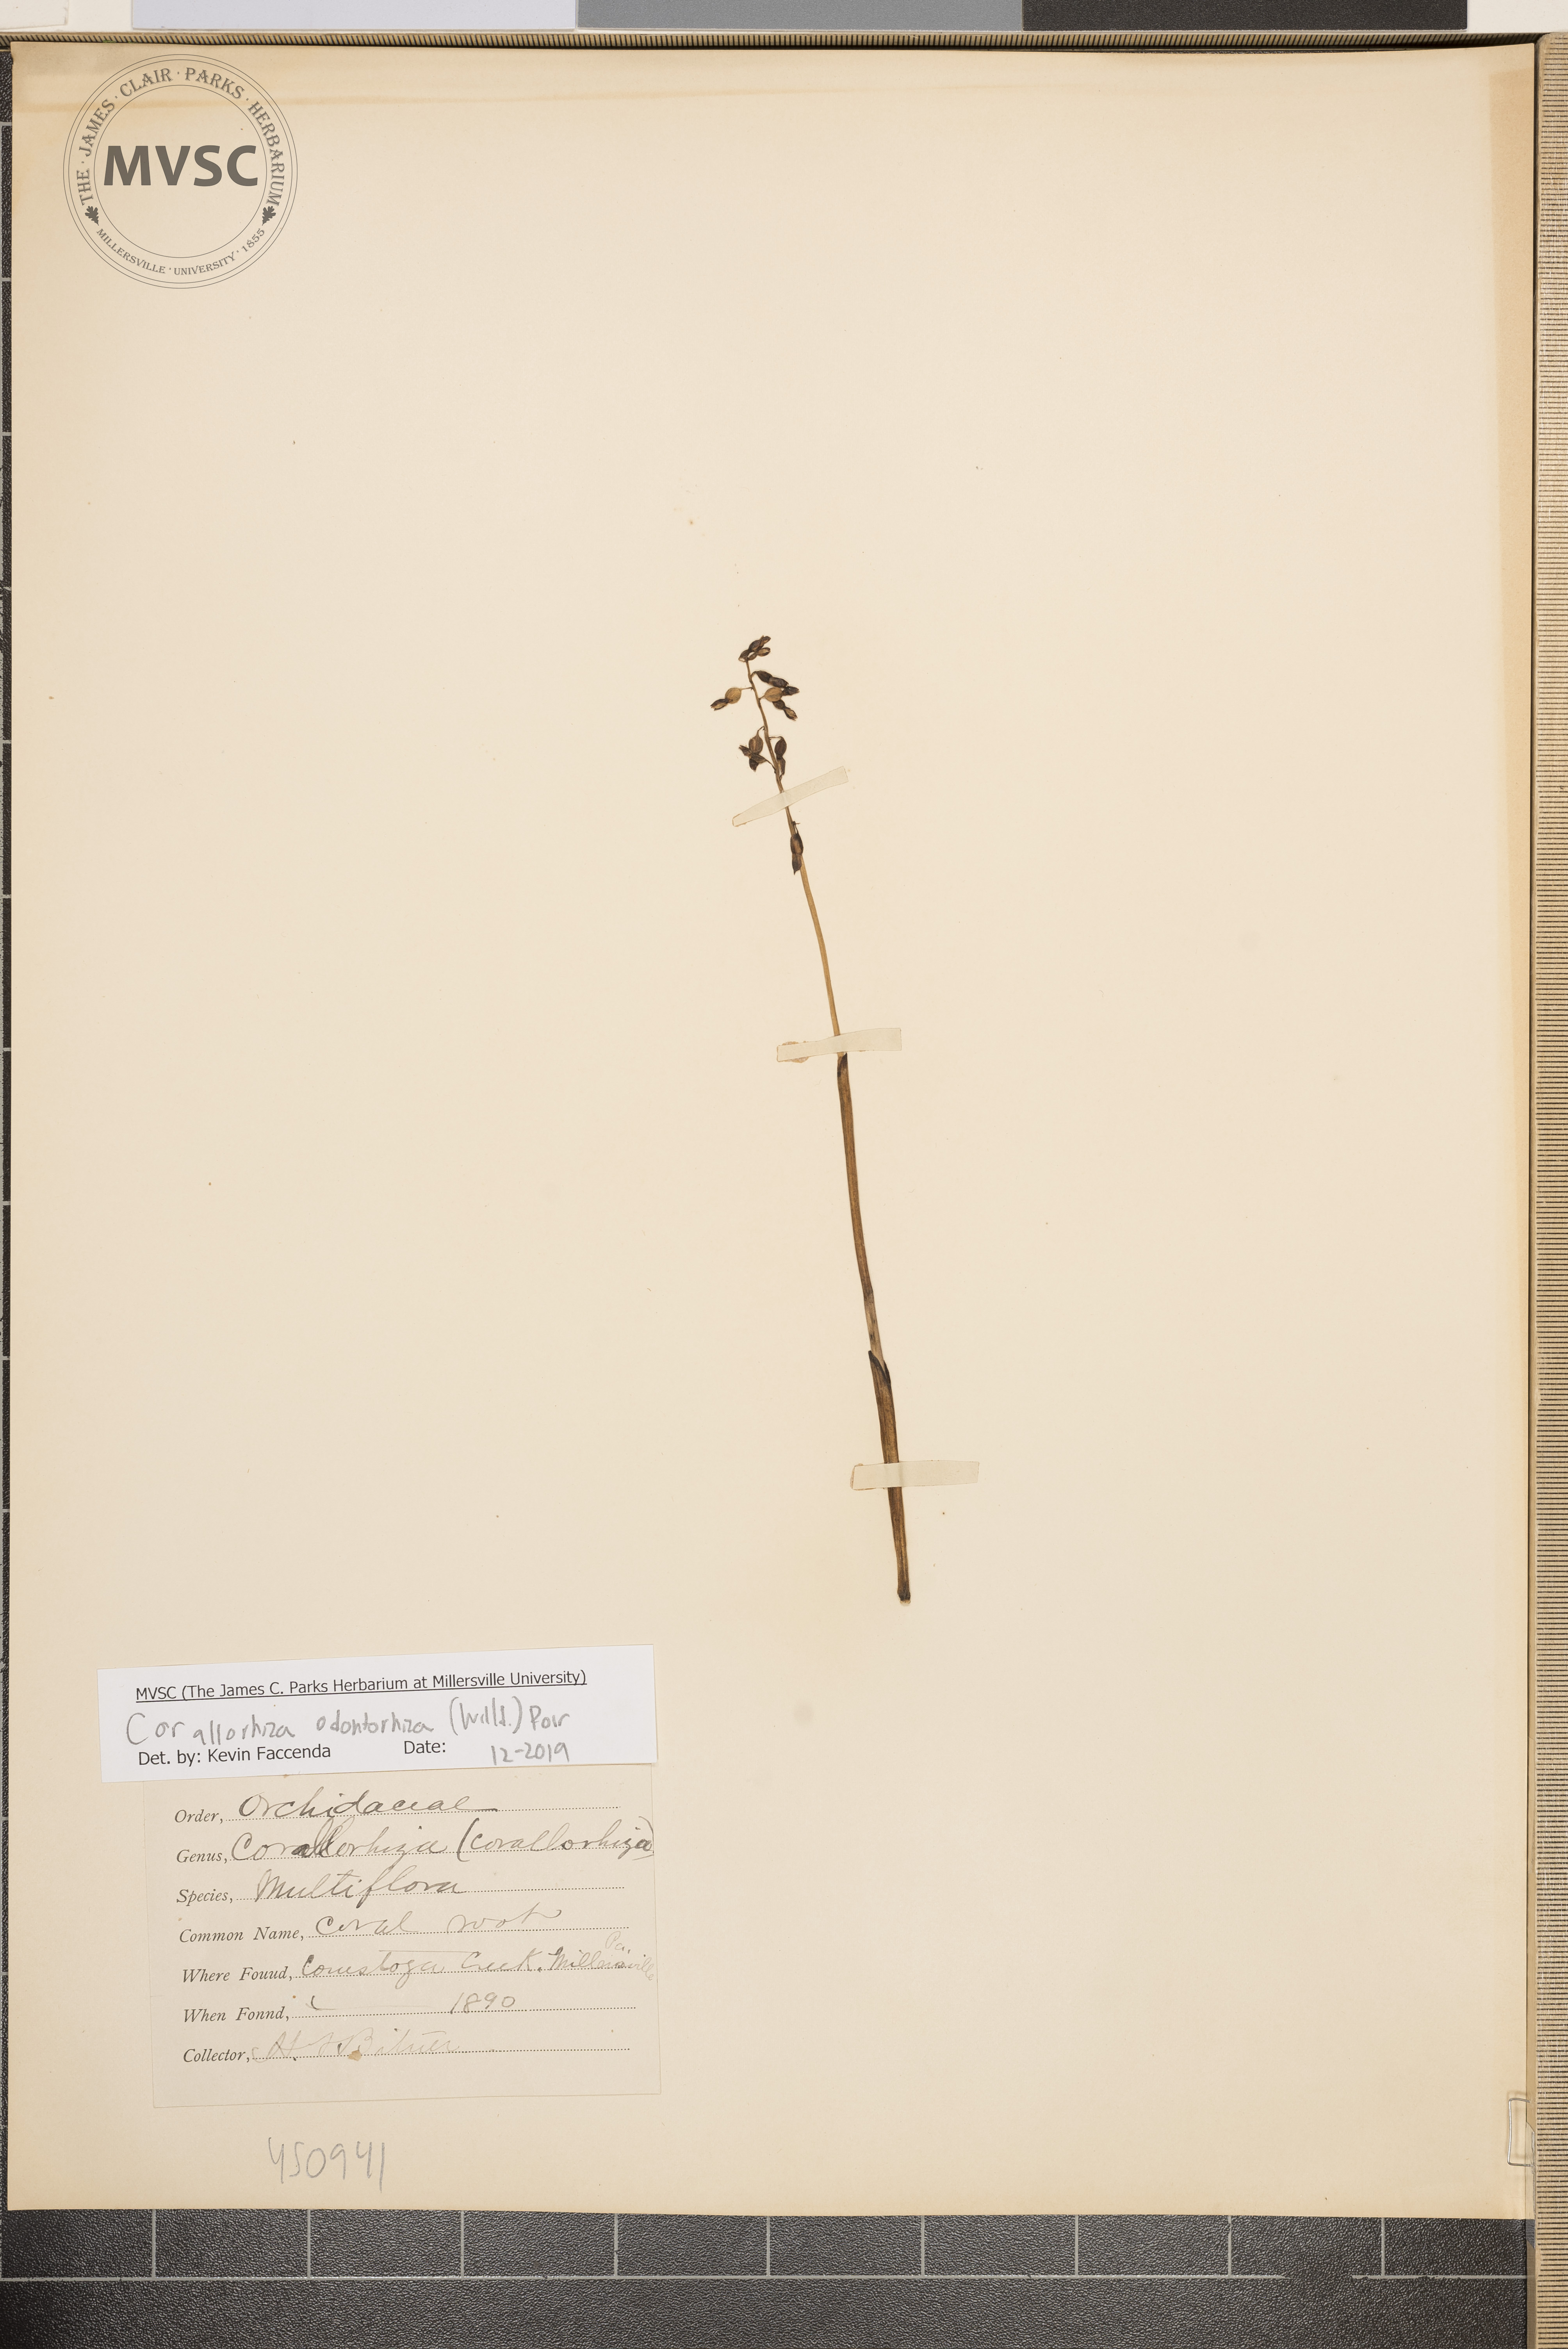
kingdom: Plantae
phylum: Tracheophyta
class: Liliopsida
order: Asparagales
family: Orchidaceae
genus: Corallorhiza
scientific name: Corallorhiza odontorhiza
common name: Autumn coralroot
